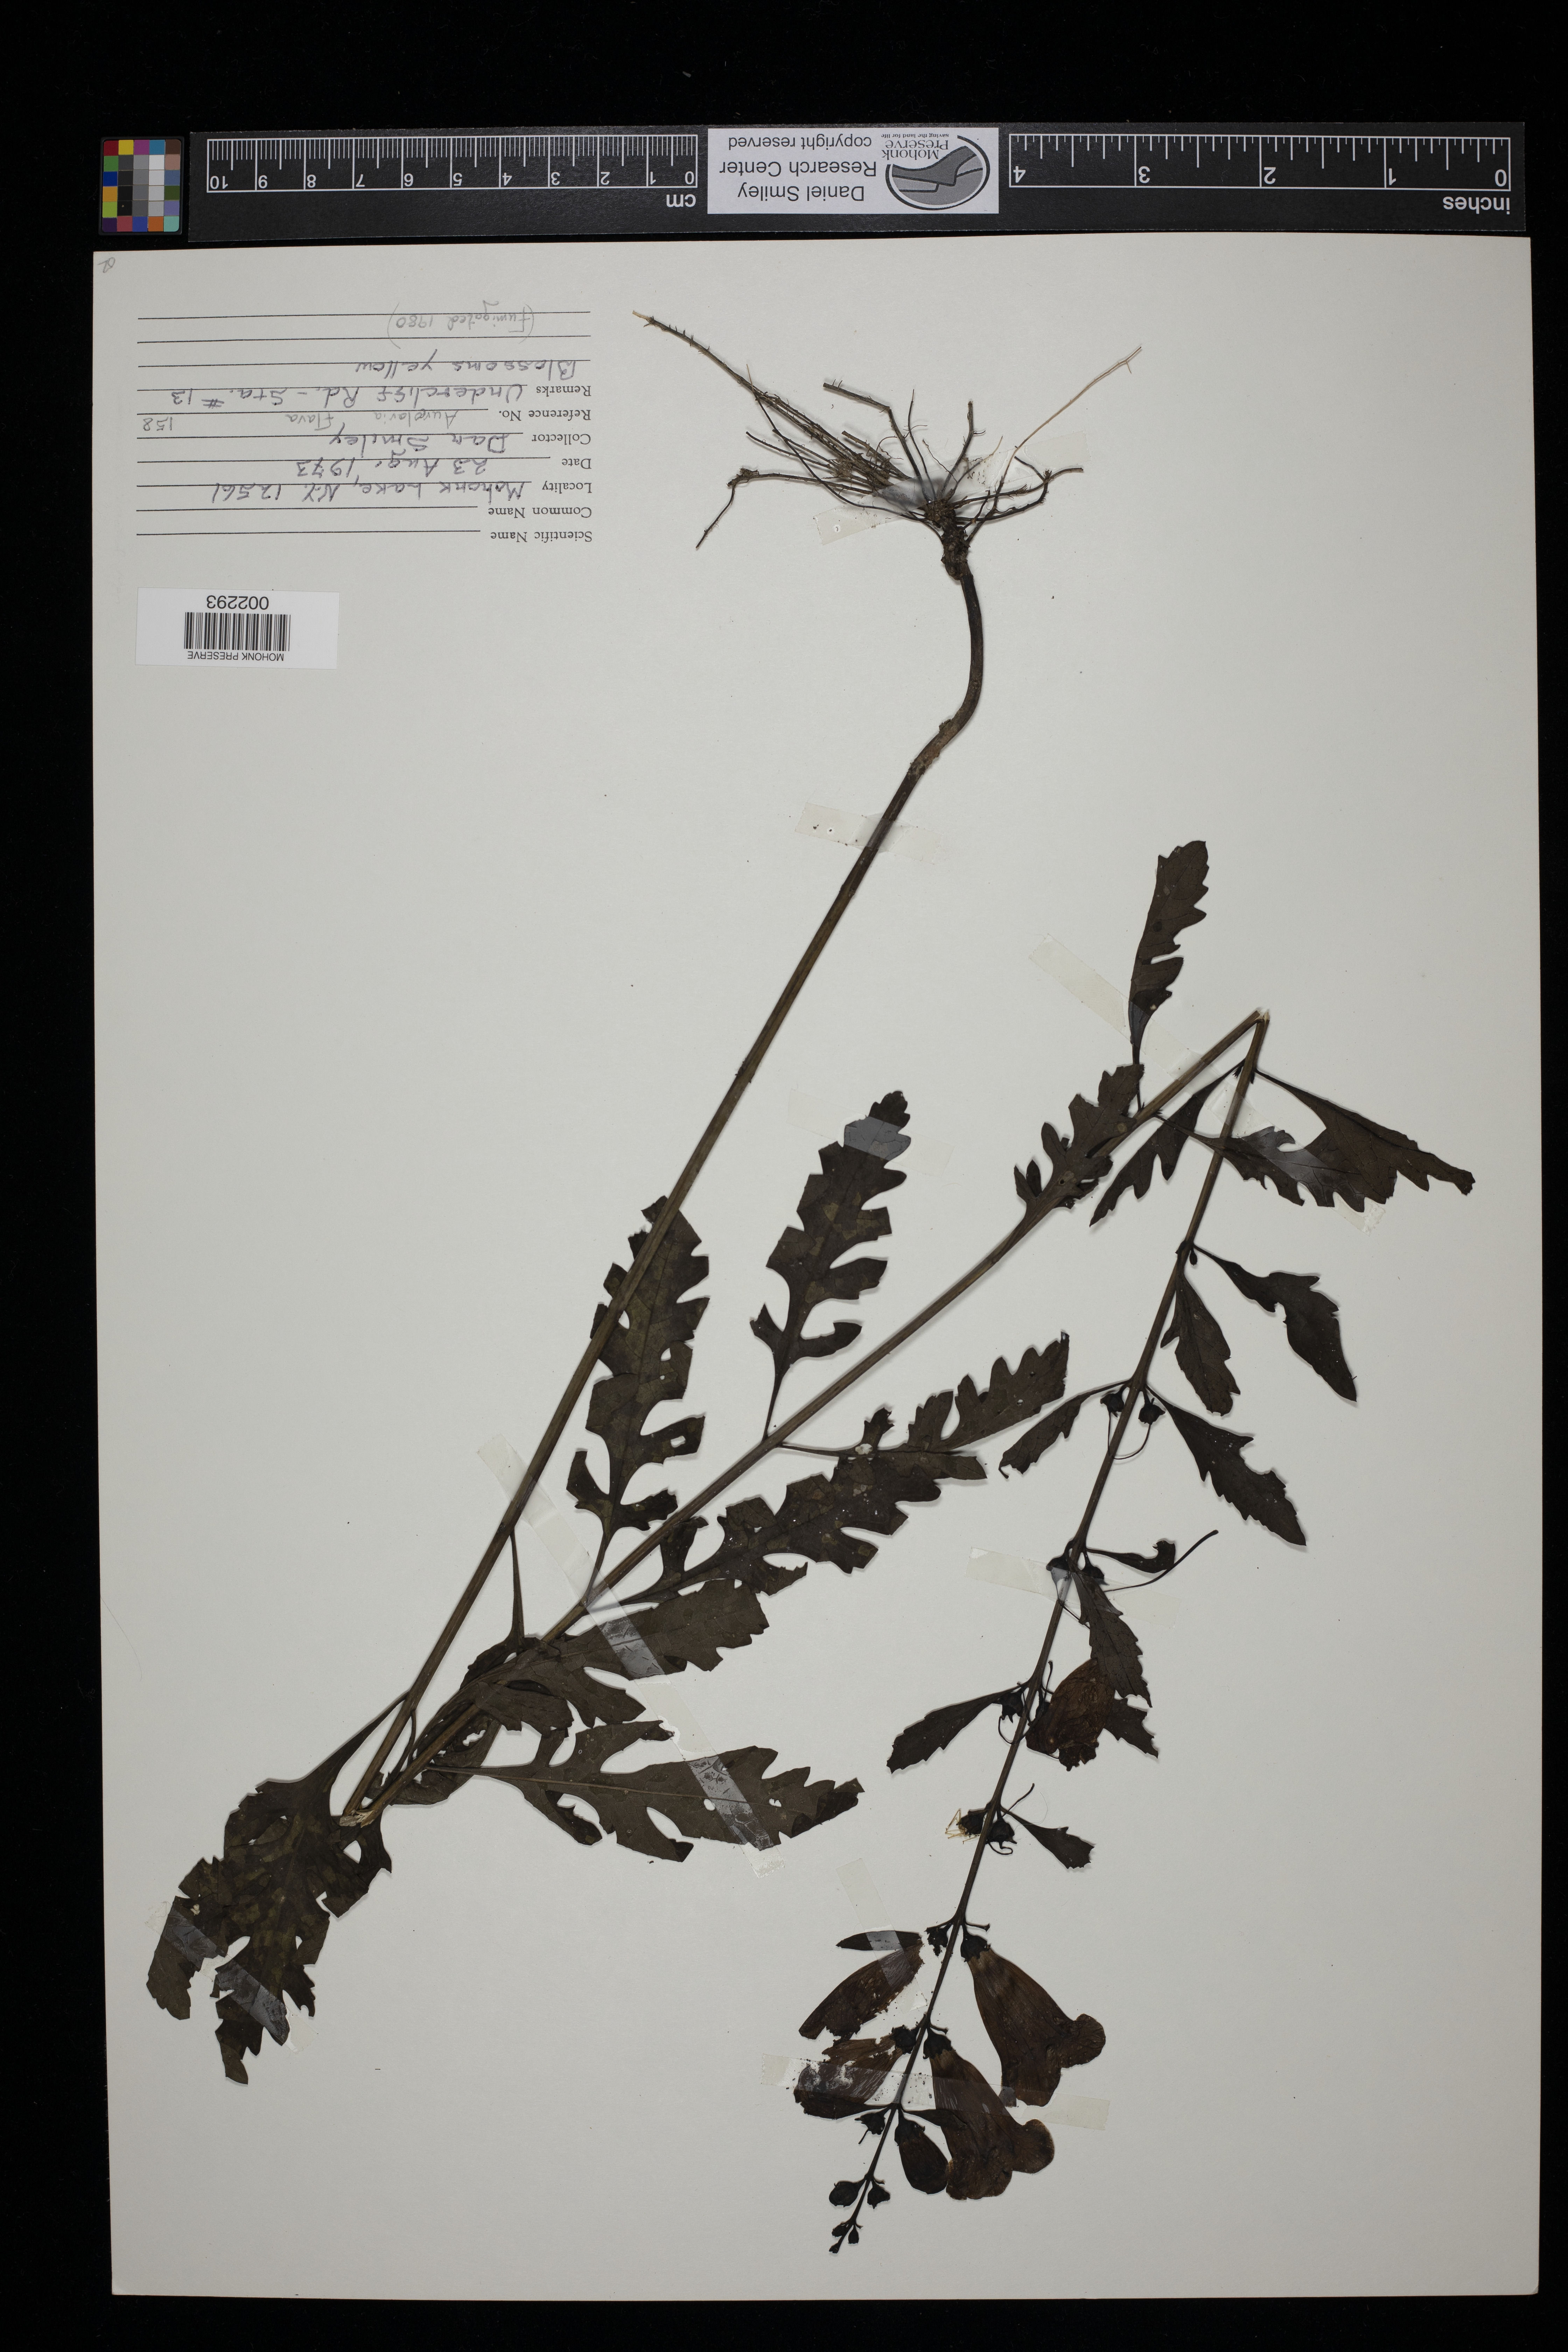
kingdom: Plantae
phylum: Tracheophyta
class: Magnoliopsida
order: Lamiales
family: Orobanchaceae
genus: Aureolaria
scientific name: Aureolaria flava
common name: Smooth false foxglove
